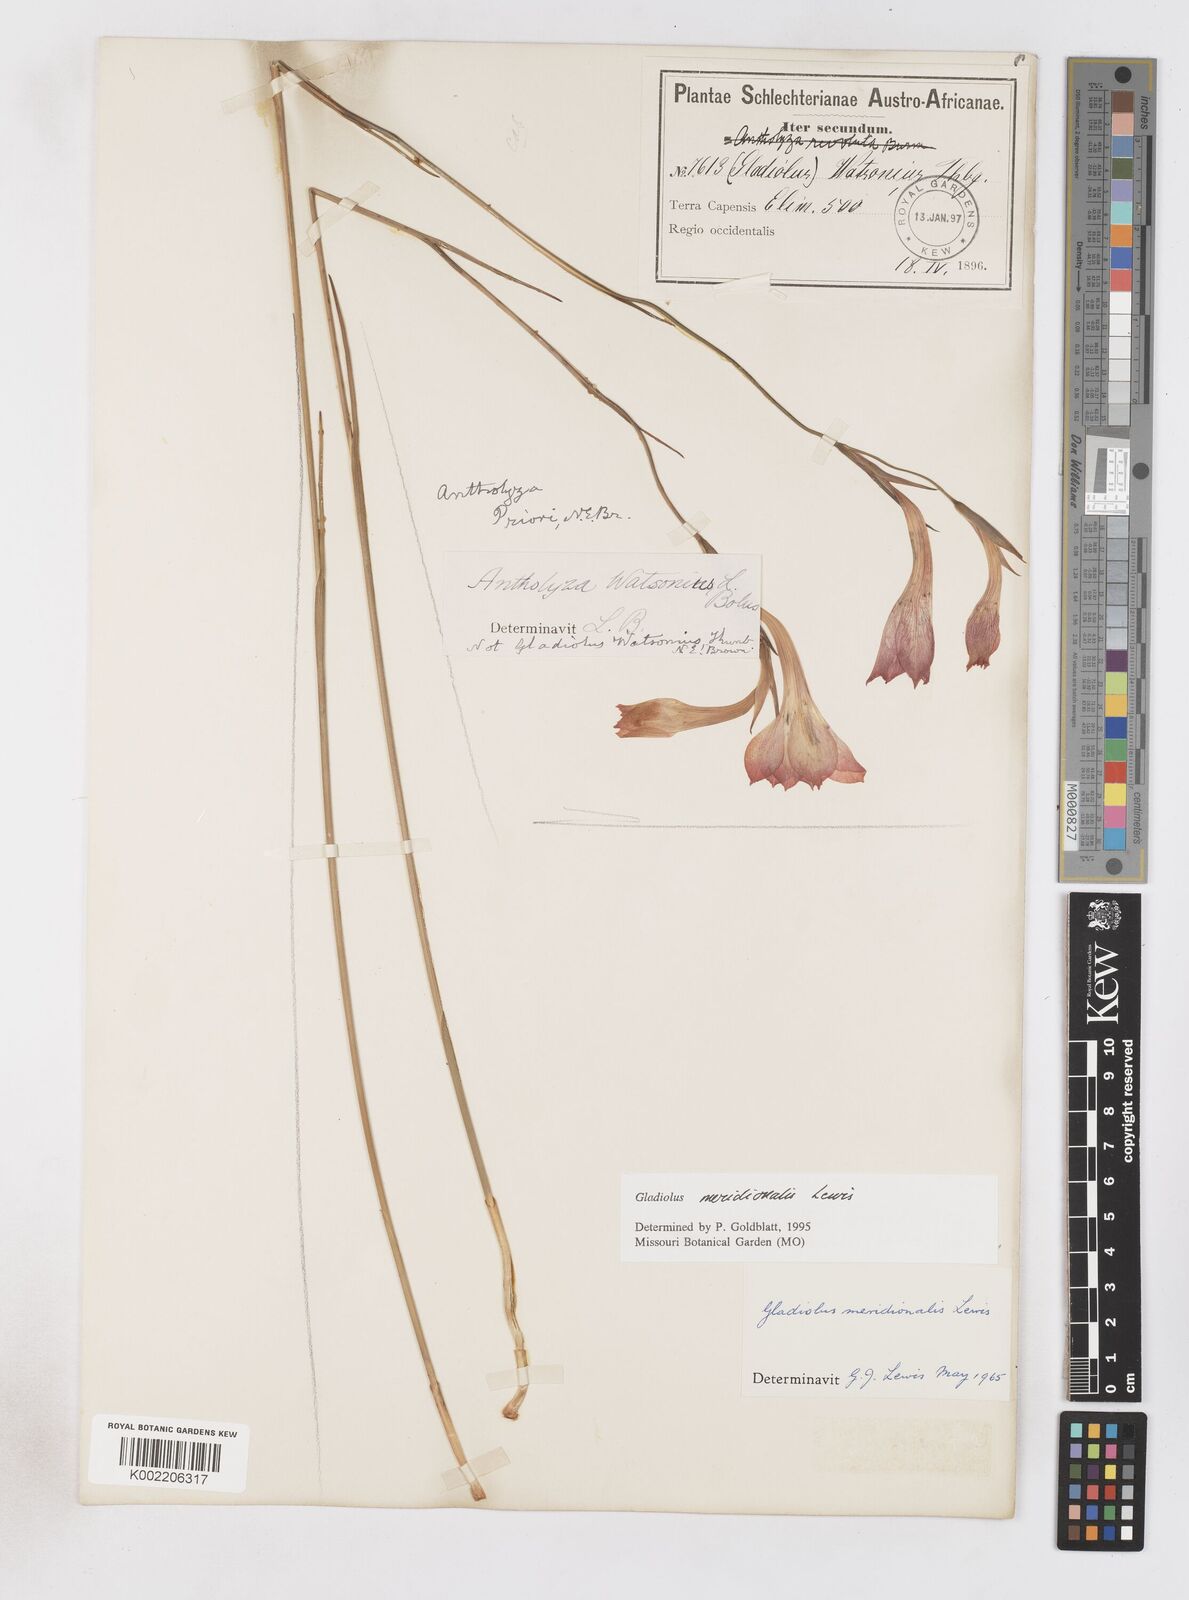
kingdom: Plantae
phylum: Tracheophyta
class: Liliopsida
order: Asparagales
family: Iridaceae
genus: Gladiolus
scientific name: Gladiolus meridionalis
